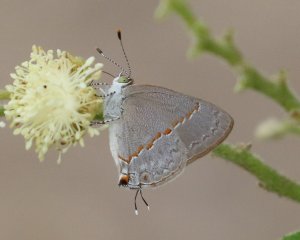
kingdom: Animalia
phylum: Arthropoda
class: Insecta
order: Lepidoptera
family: Lycaenidae
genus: Ministrymon
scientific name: Ministrymon janevicroy
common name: Pebbly Ministreak
